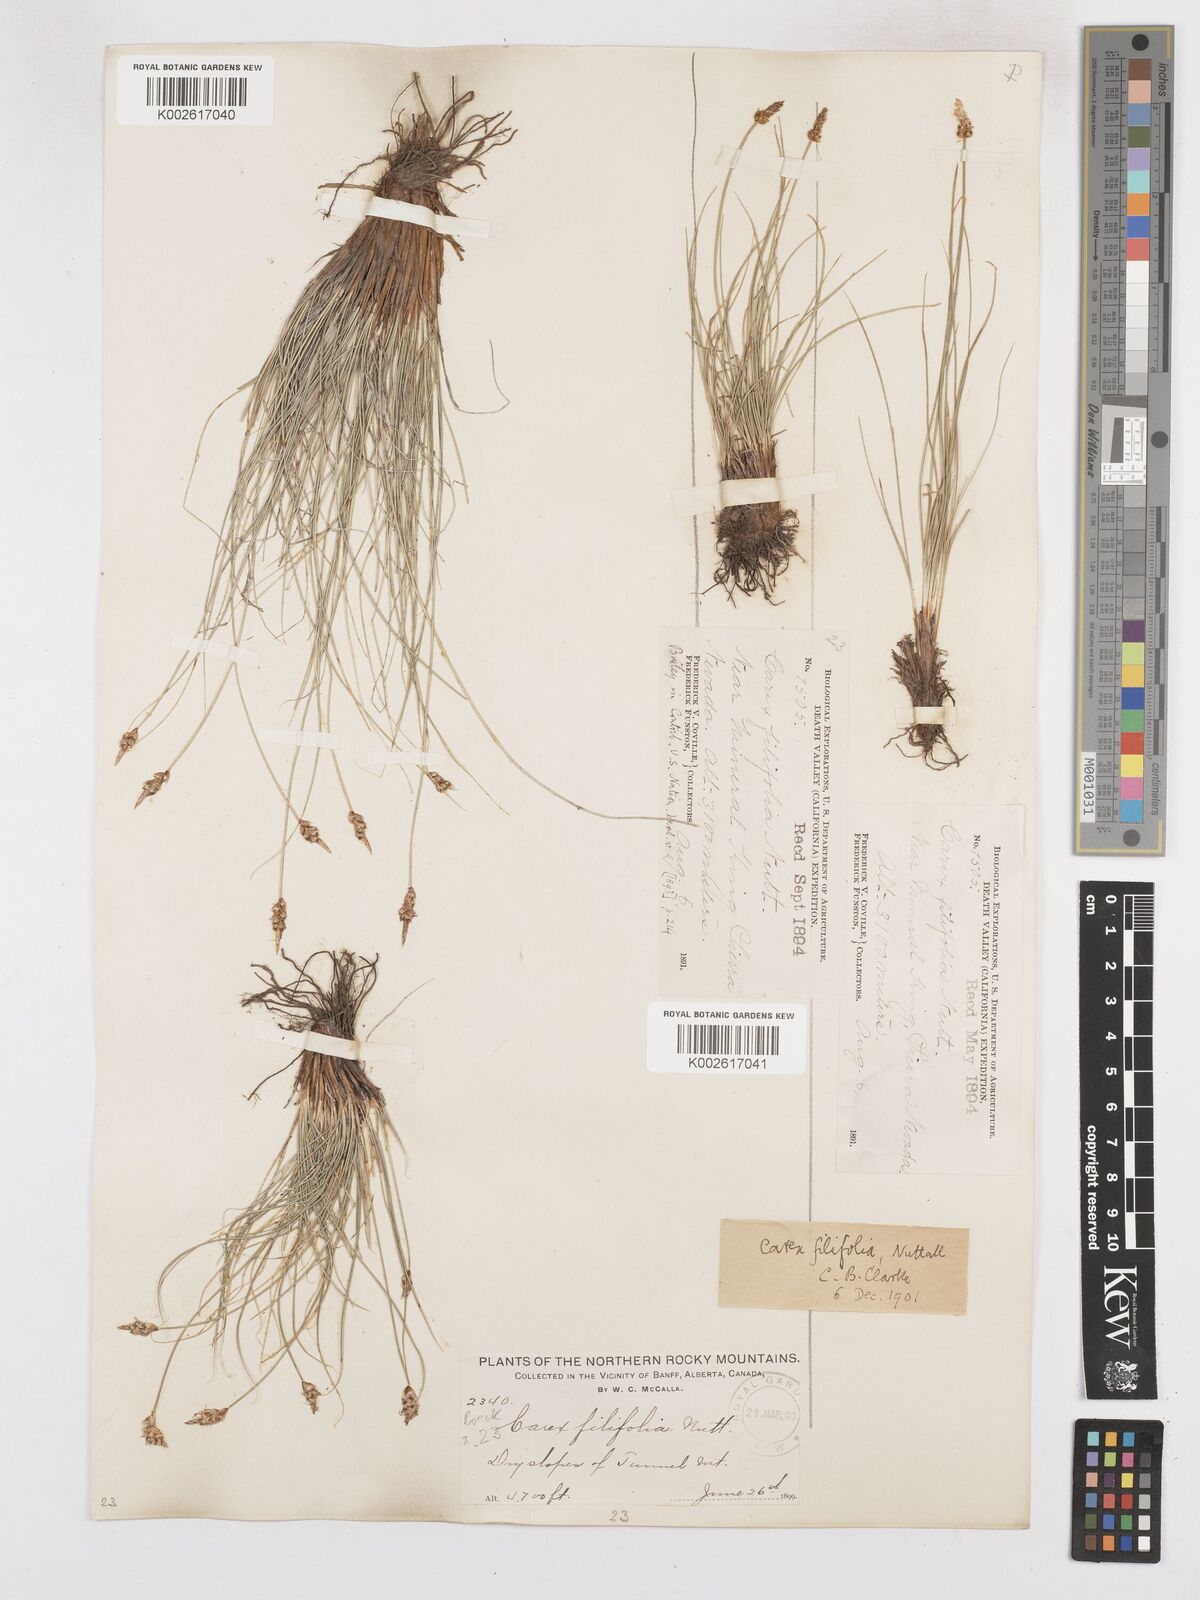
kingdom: Plantae
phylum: Tracheophyta
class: Liliopsida
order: Poales
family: Cyperaceae
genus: Carex
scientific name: Carex filifolia
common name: Threadleaf sedge
